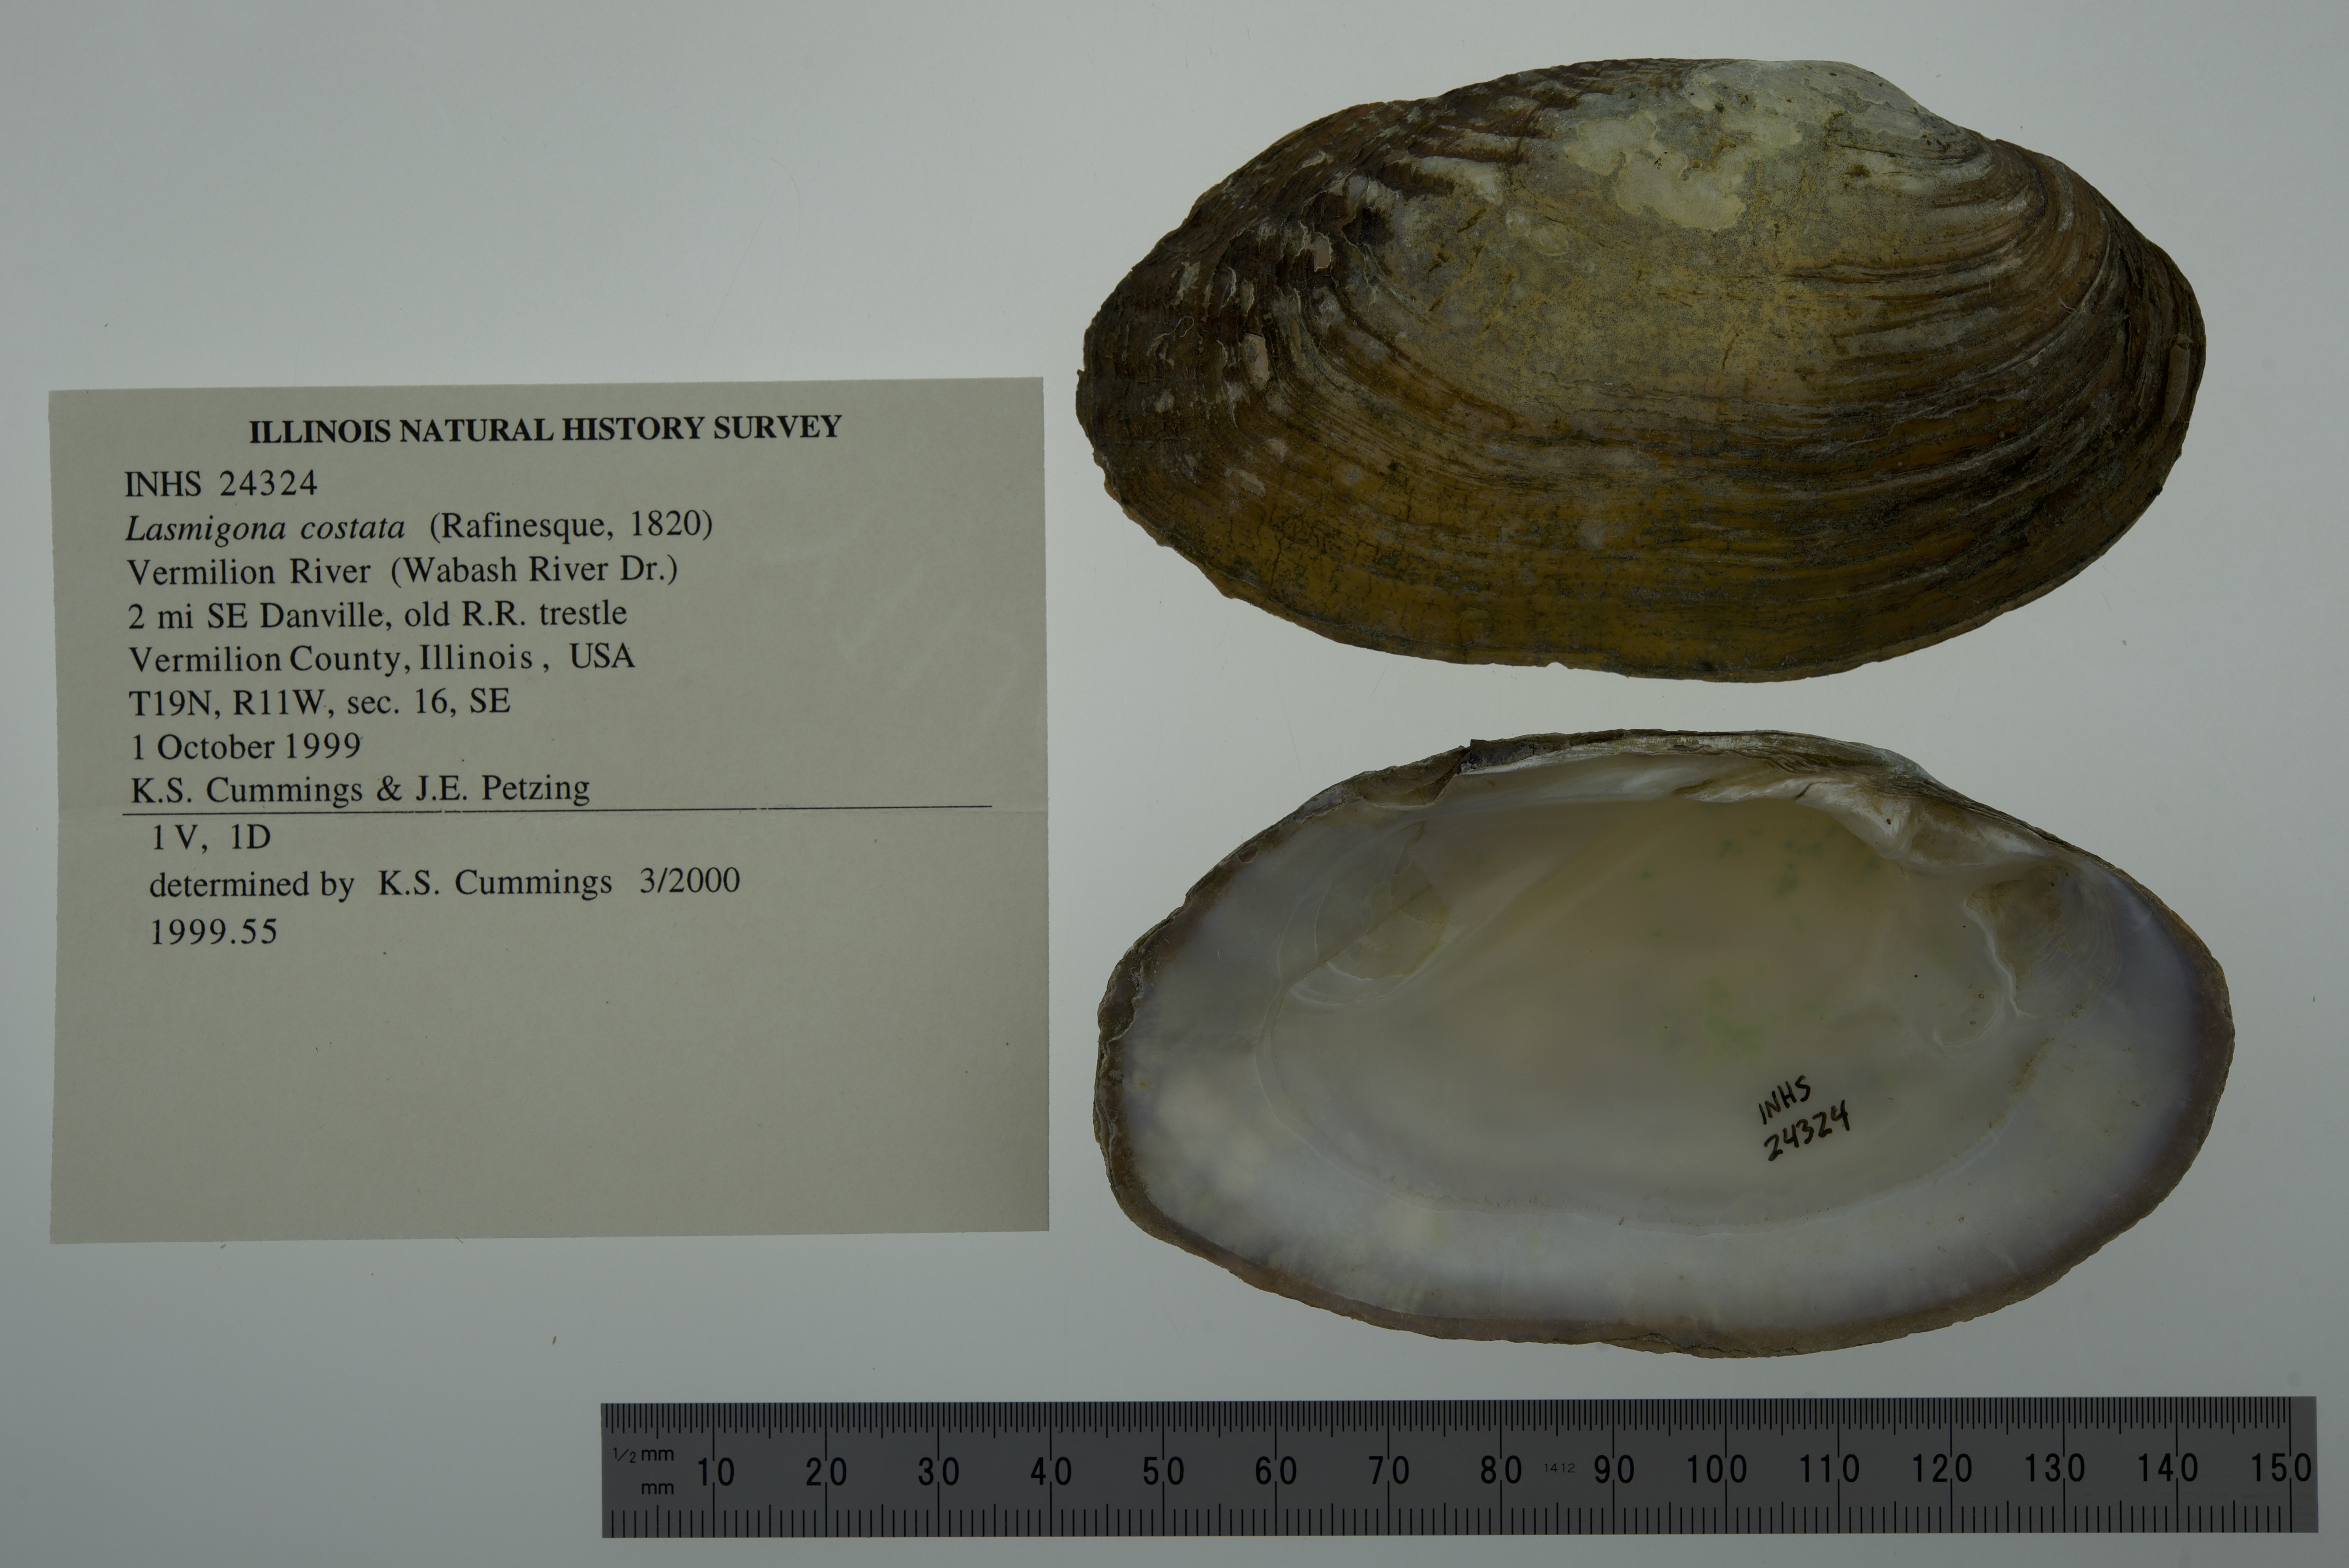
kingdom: Animalia
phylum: Mollusca
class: Bivalvia
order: Unionida
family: Unionidae
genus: Lasmigona
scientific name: Lasmigona costata
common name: Flutedshell
